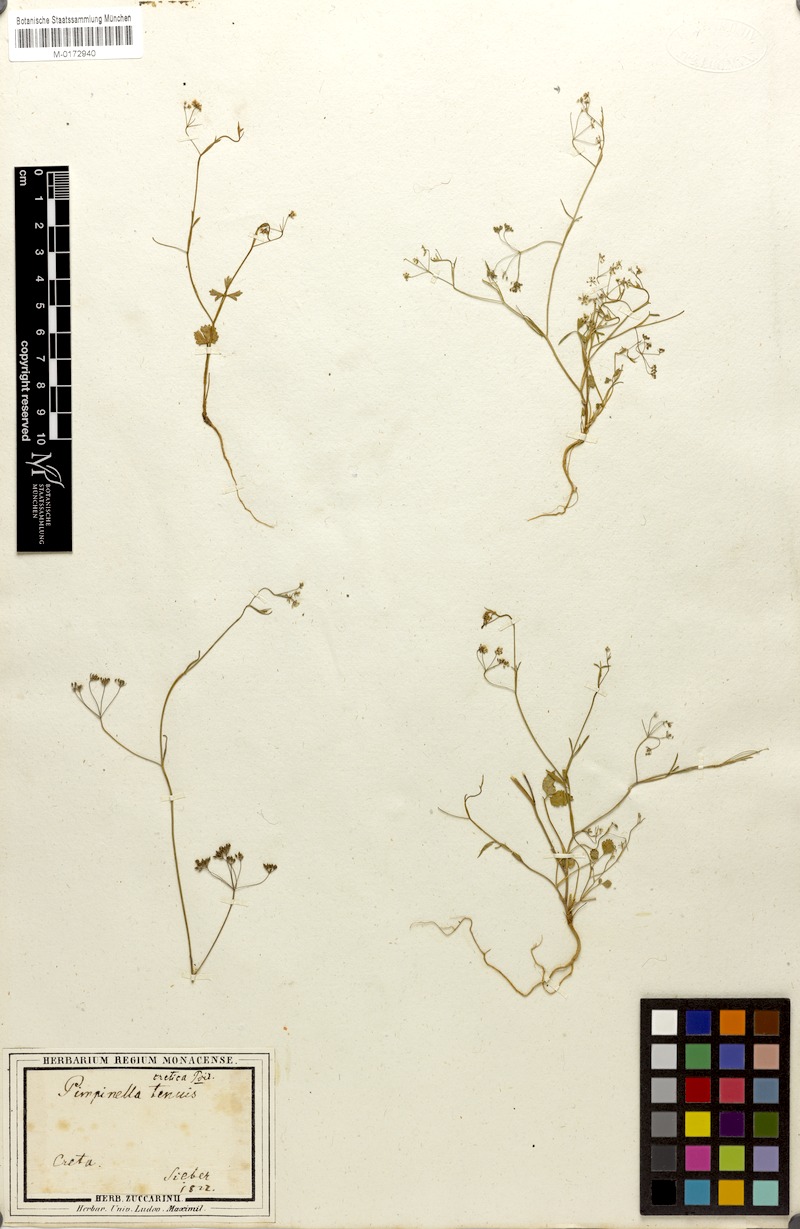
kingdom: Plantae
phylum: Tracheophyta
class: Magnoliopsida
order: Apiales
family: Apiaceae
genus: Pimpinella
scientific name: Pimpinella cretica
